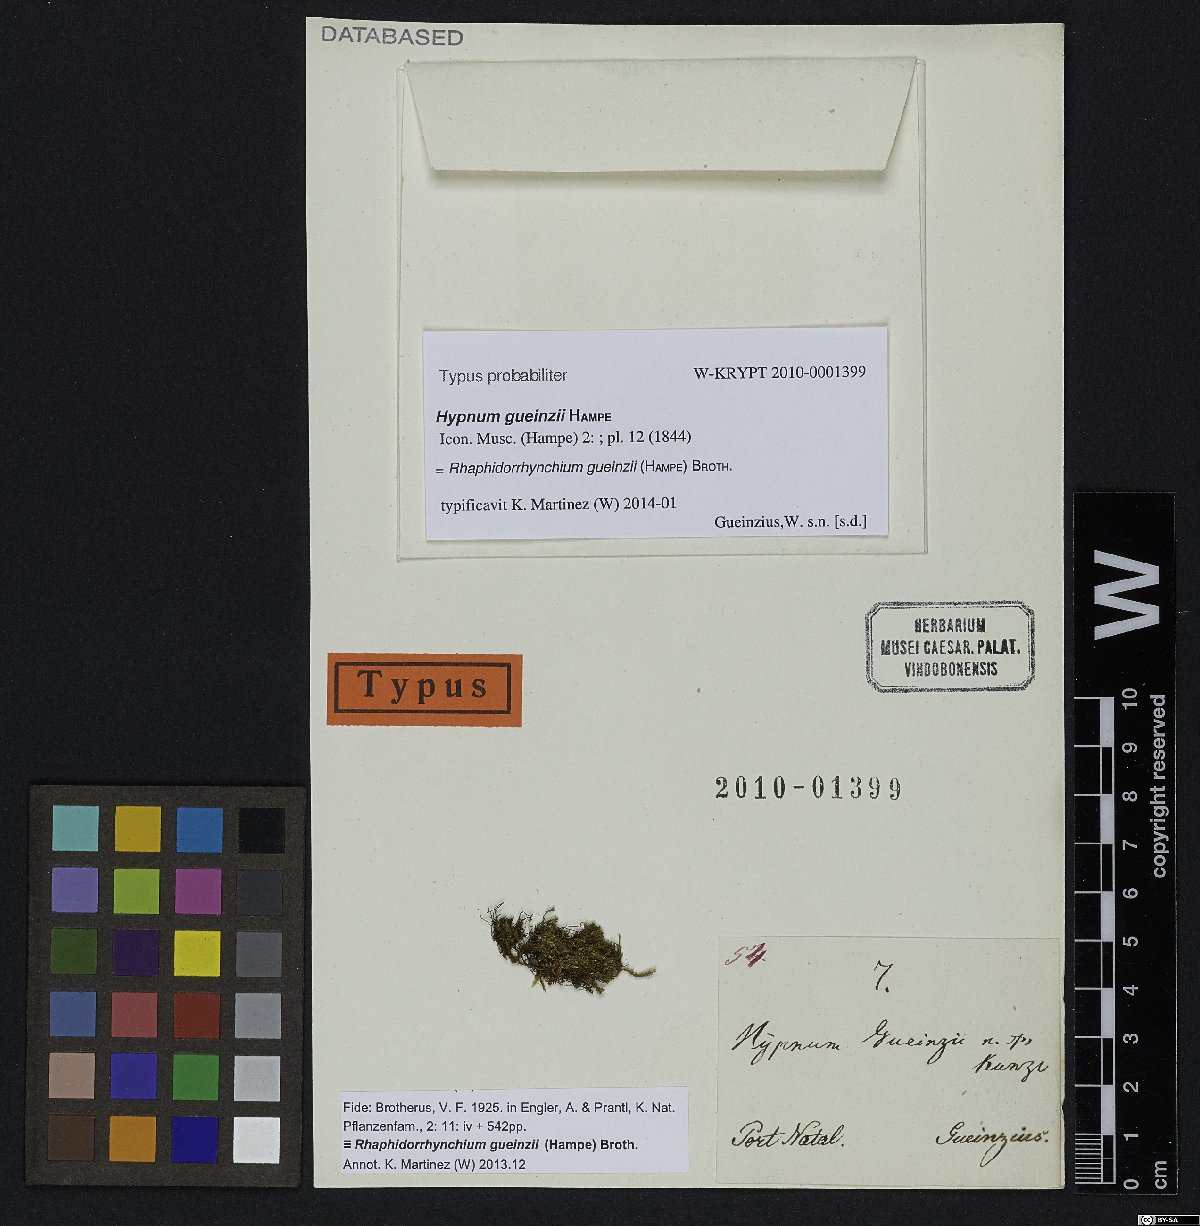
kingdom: Plantae
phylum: Bryophyta
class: Bryopsida
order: Hypnales
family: Sematophyllaceae
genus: Sematophyllum
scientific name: Sematophyllum gueinzii
